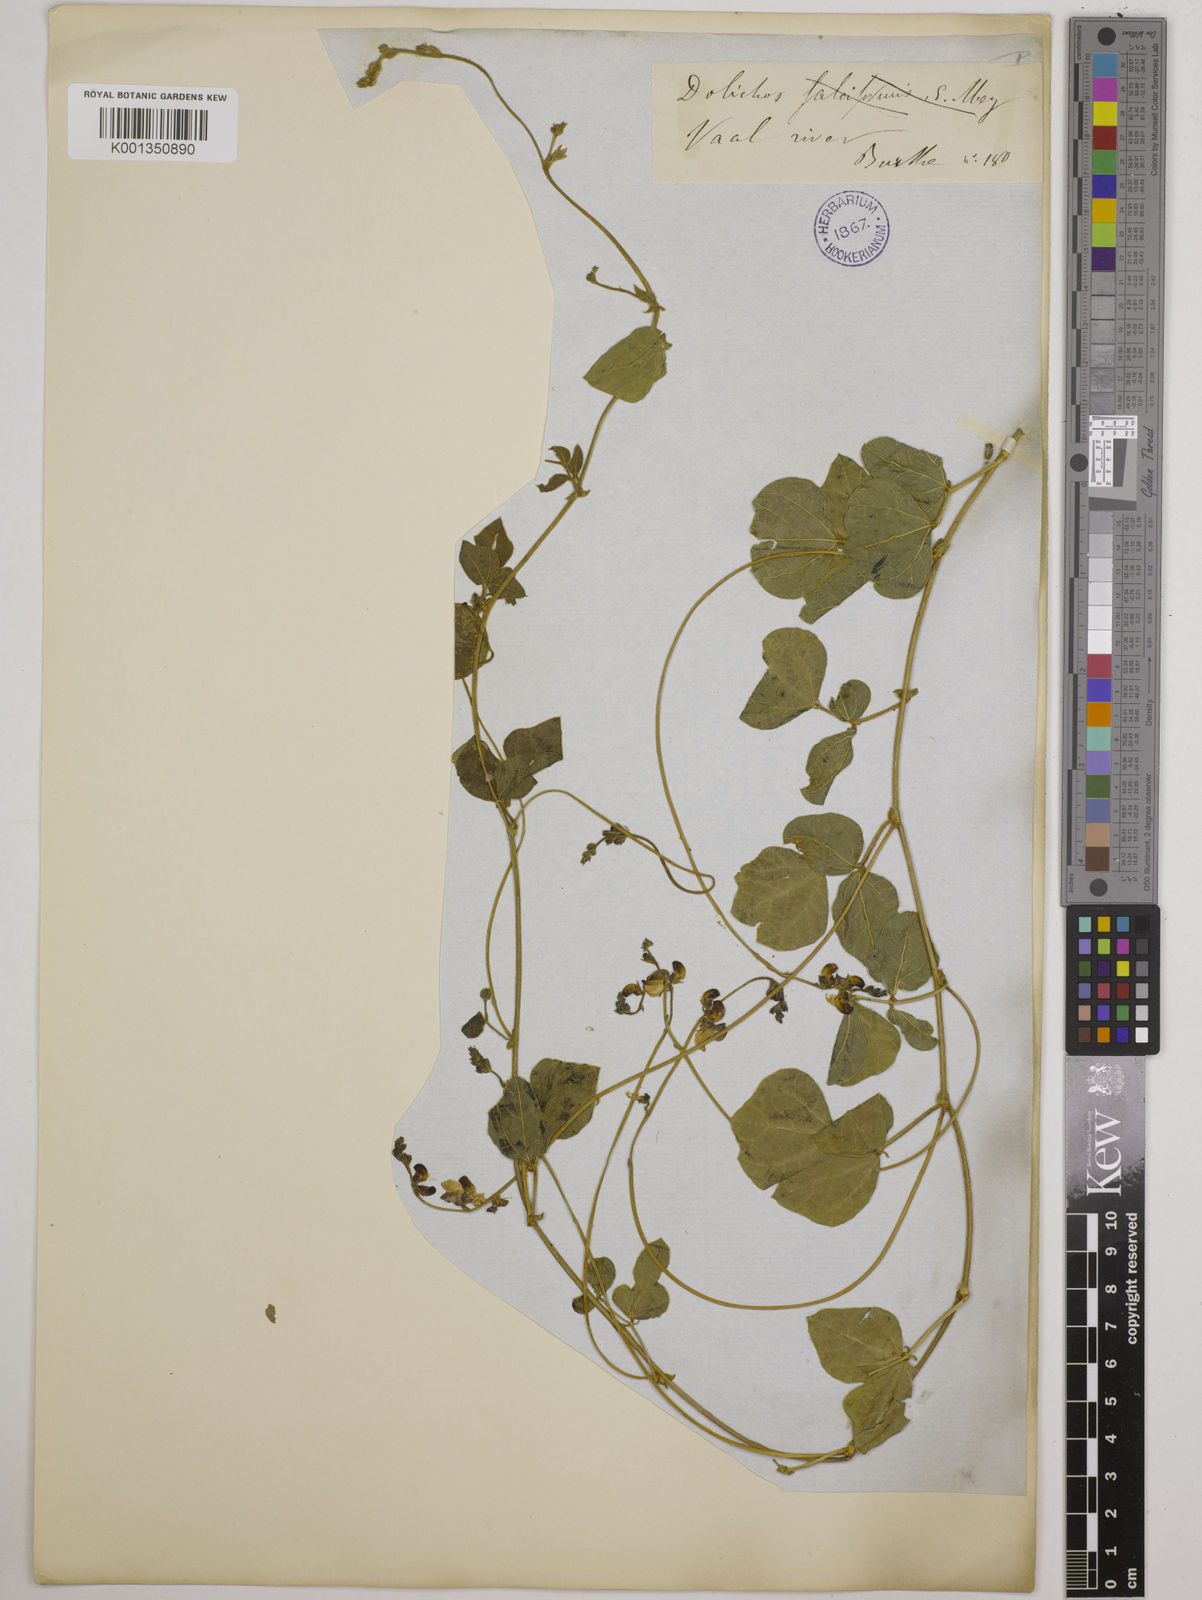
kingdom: Plantae
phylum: Tracheophyta
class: Magnoliopsida
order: Fabales
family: Fabaceae
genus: Dolichos
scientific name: Dolichos falciformis
